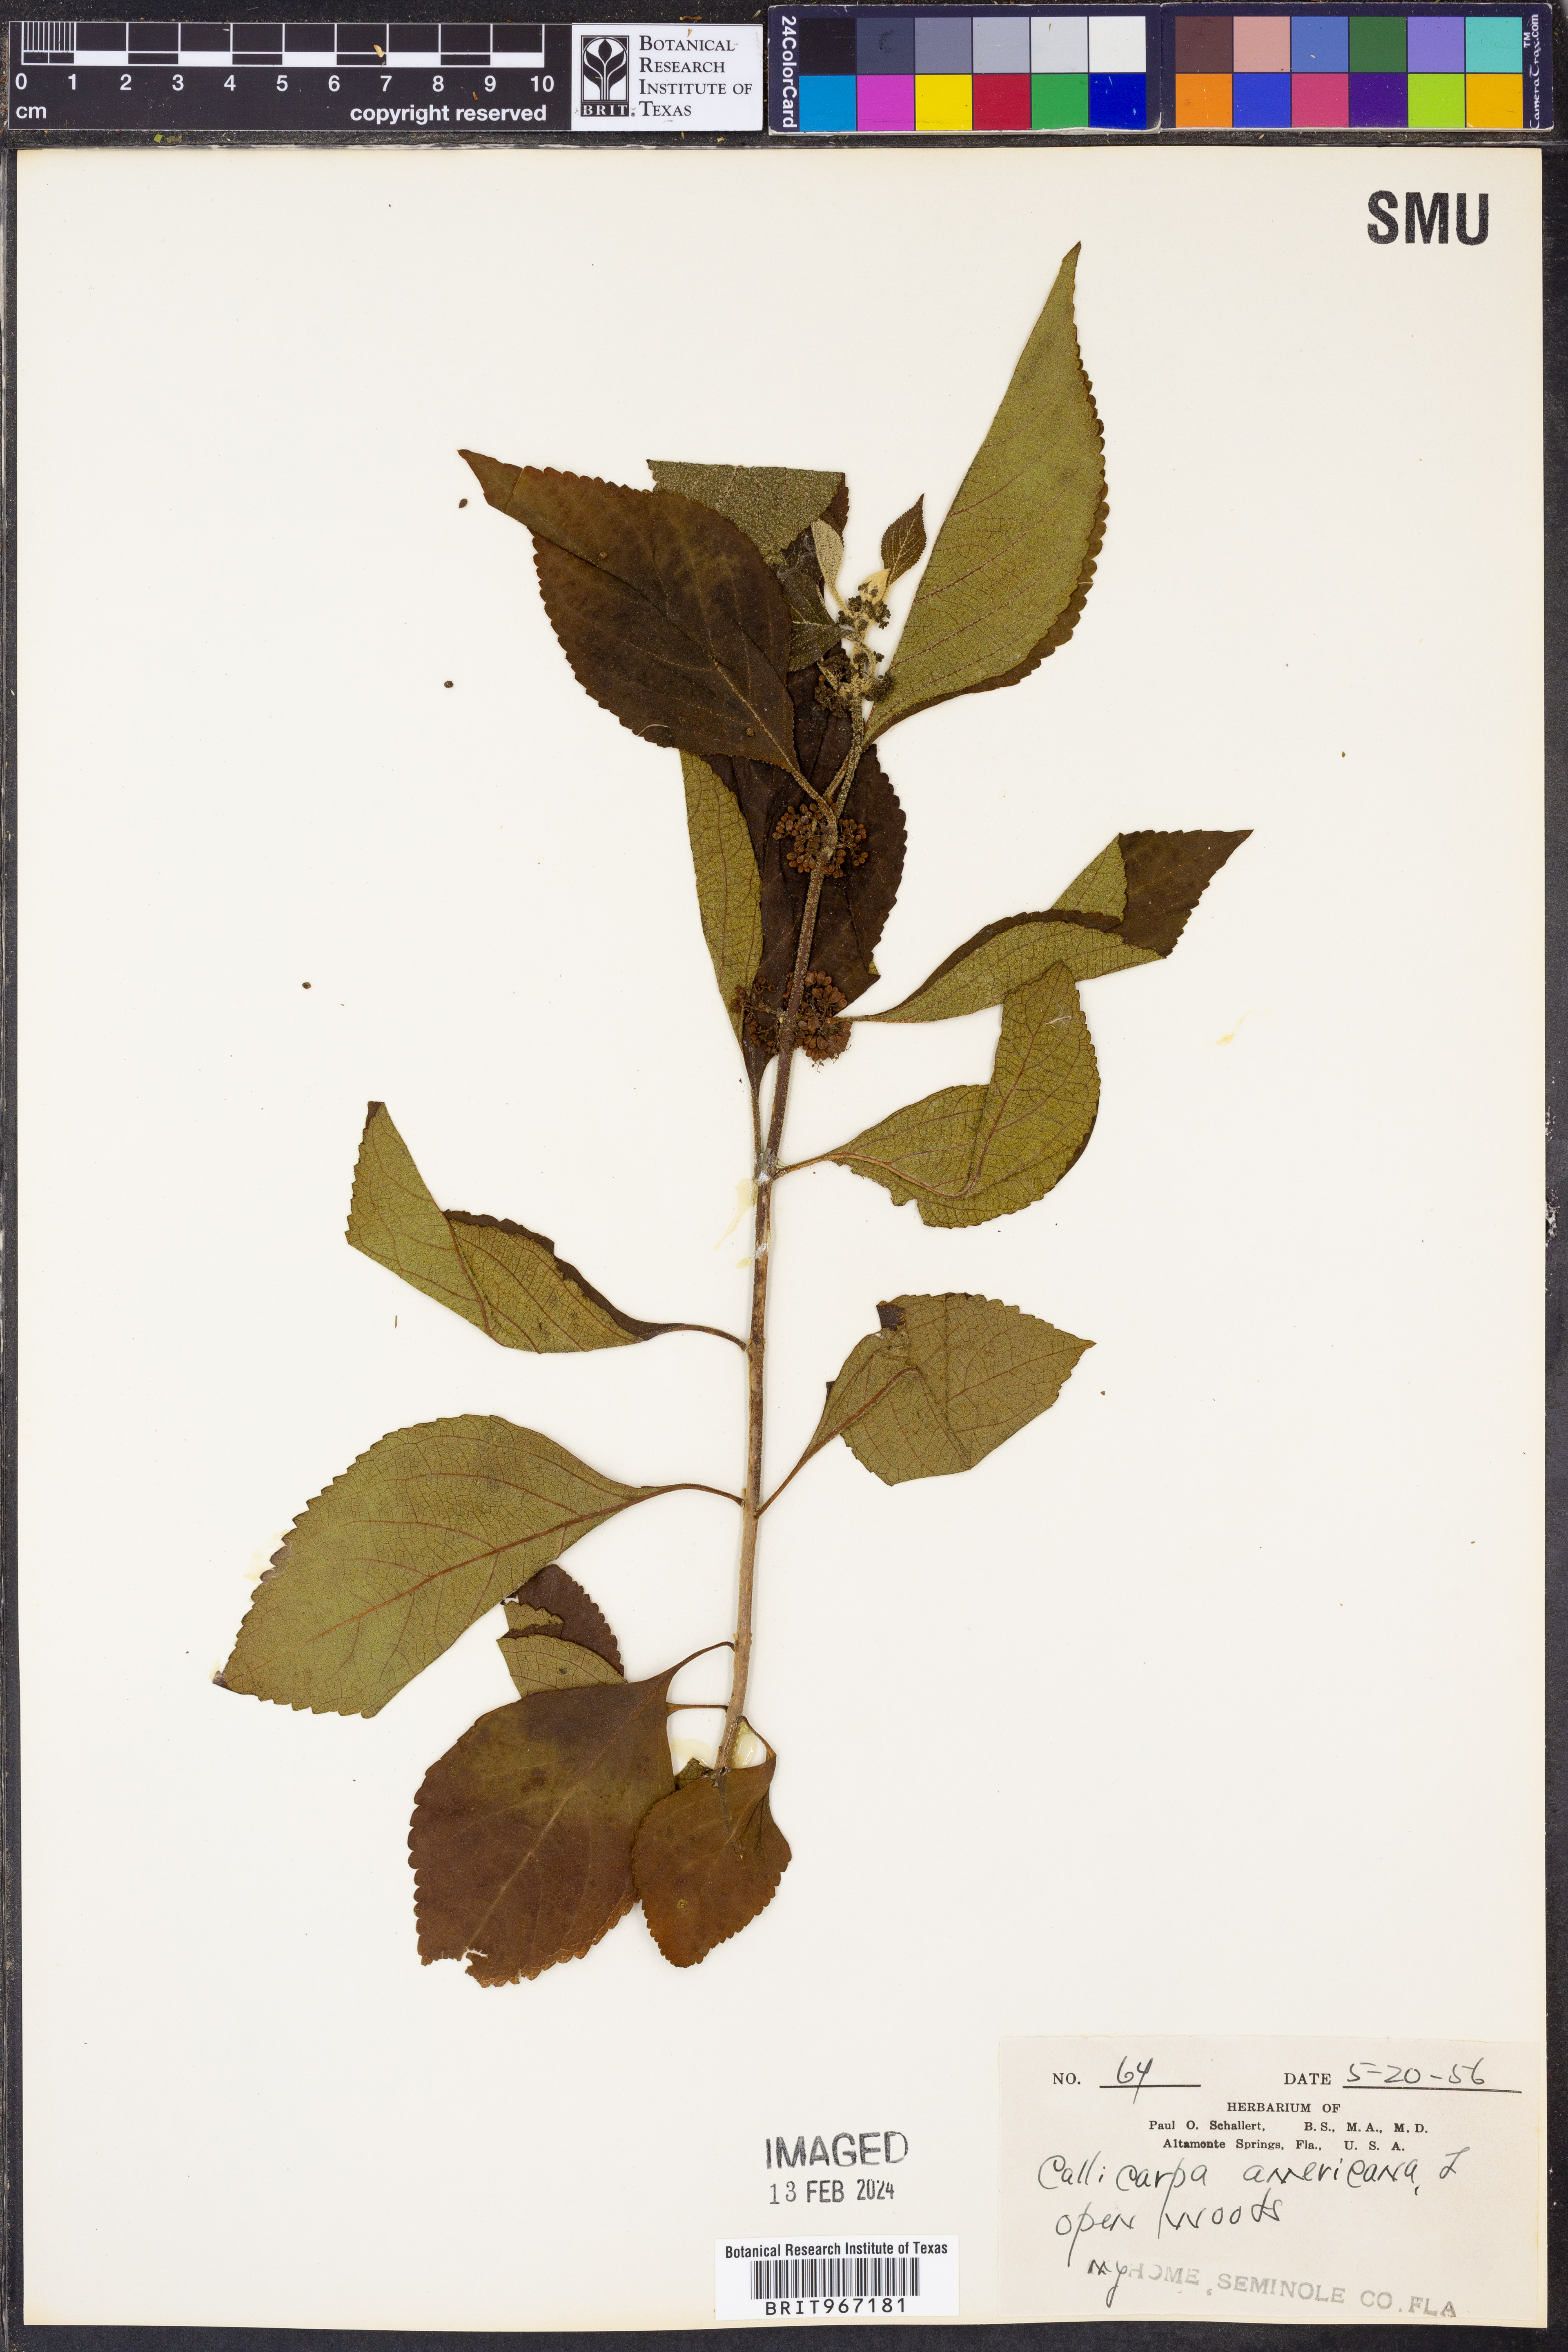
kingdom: Plantae
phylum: Tracheophyta
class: Magnoliopsida
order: Lamiales
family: Lamiaceae
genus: Callicarpa
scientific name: Callicarpa americana
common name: American beautyberry
